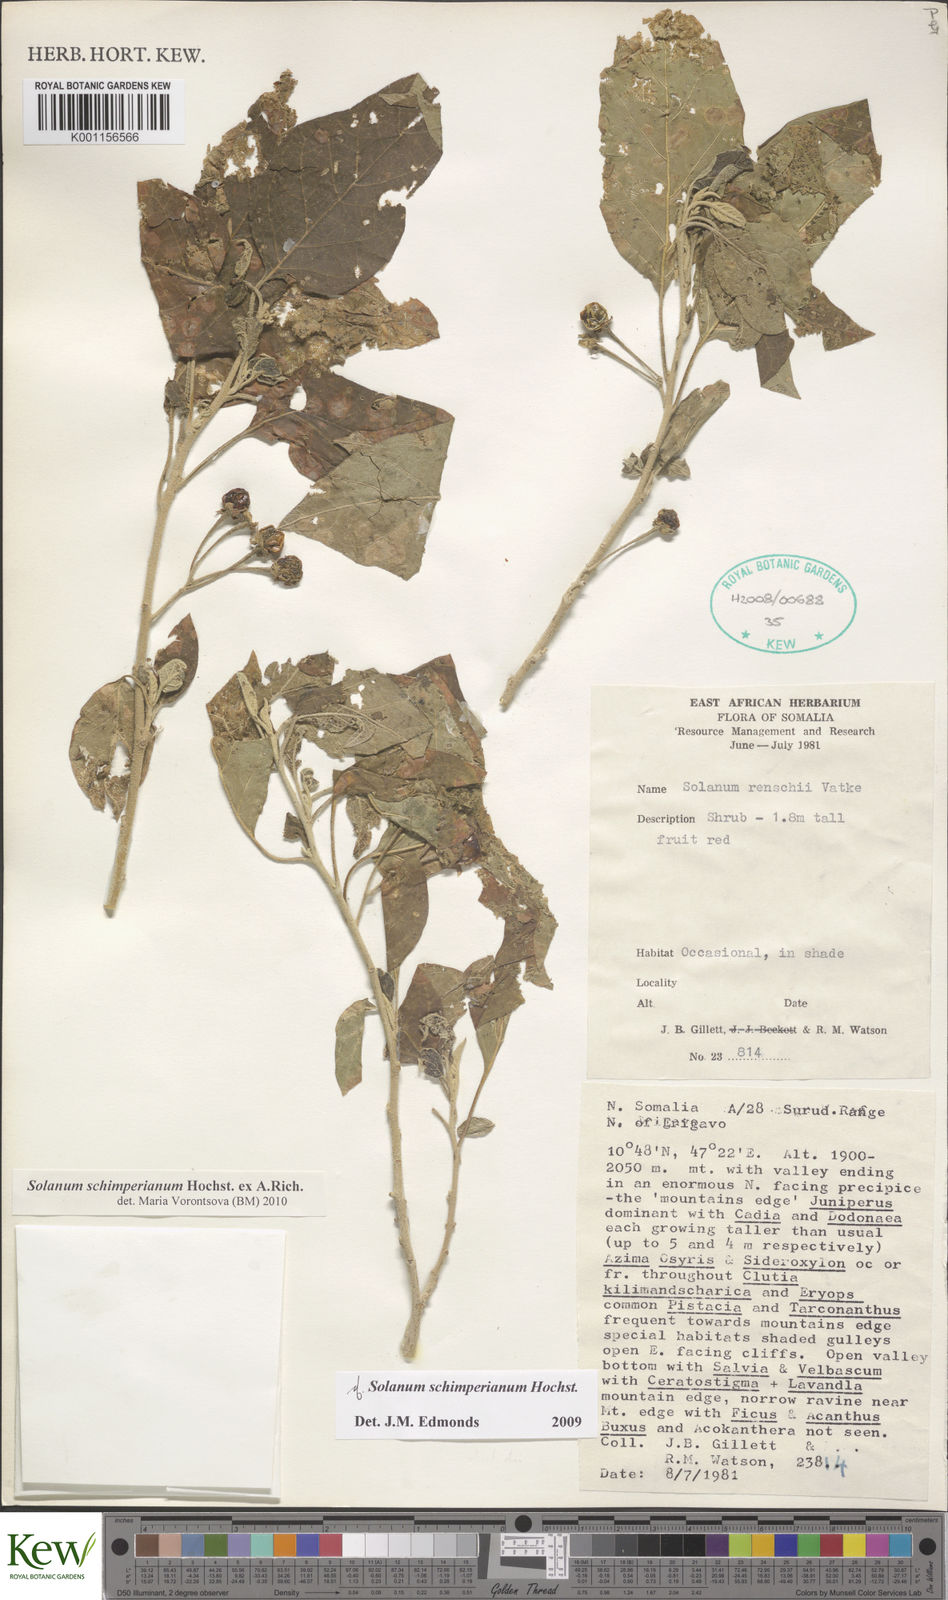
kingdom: Plantae
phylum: Tracheophyta
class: Magnoliopsida
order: Solanales
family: Solanaceae
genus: Solanum
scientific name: Solanum
